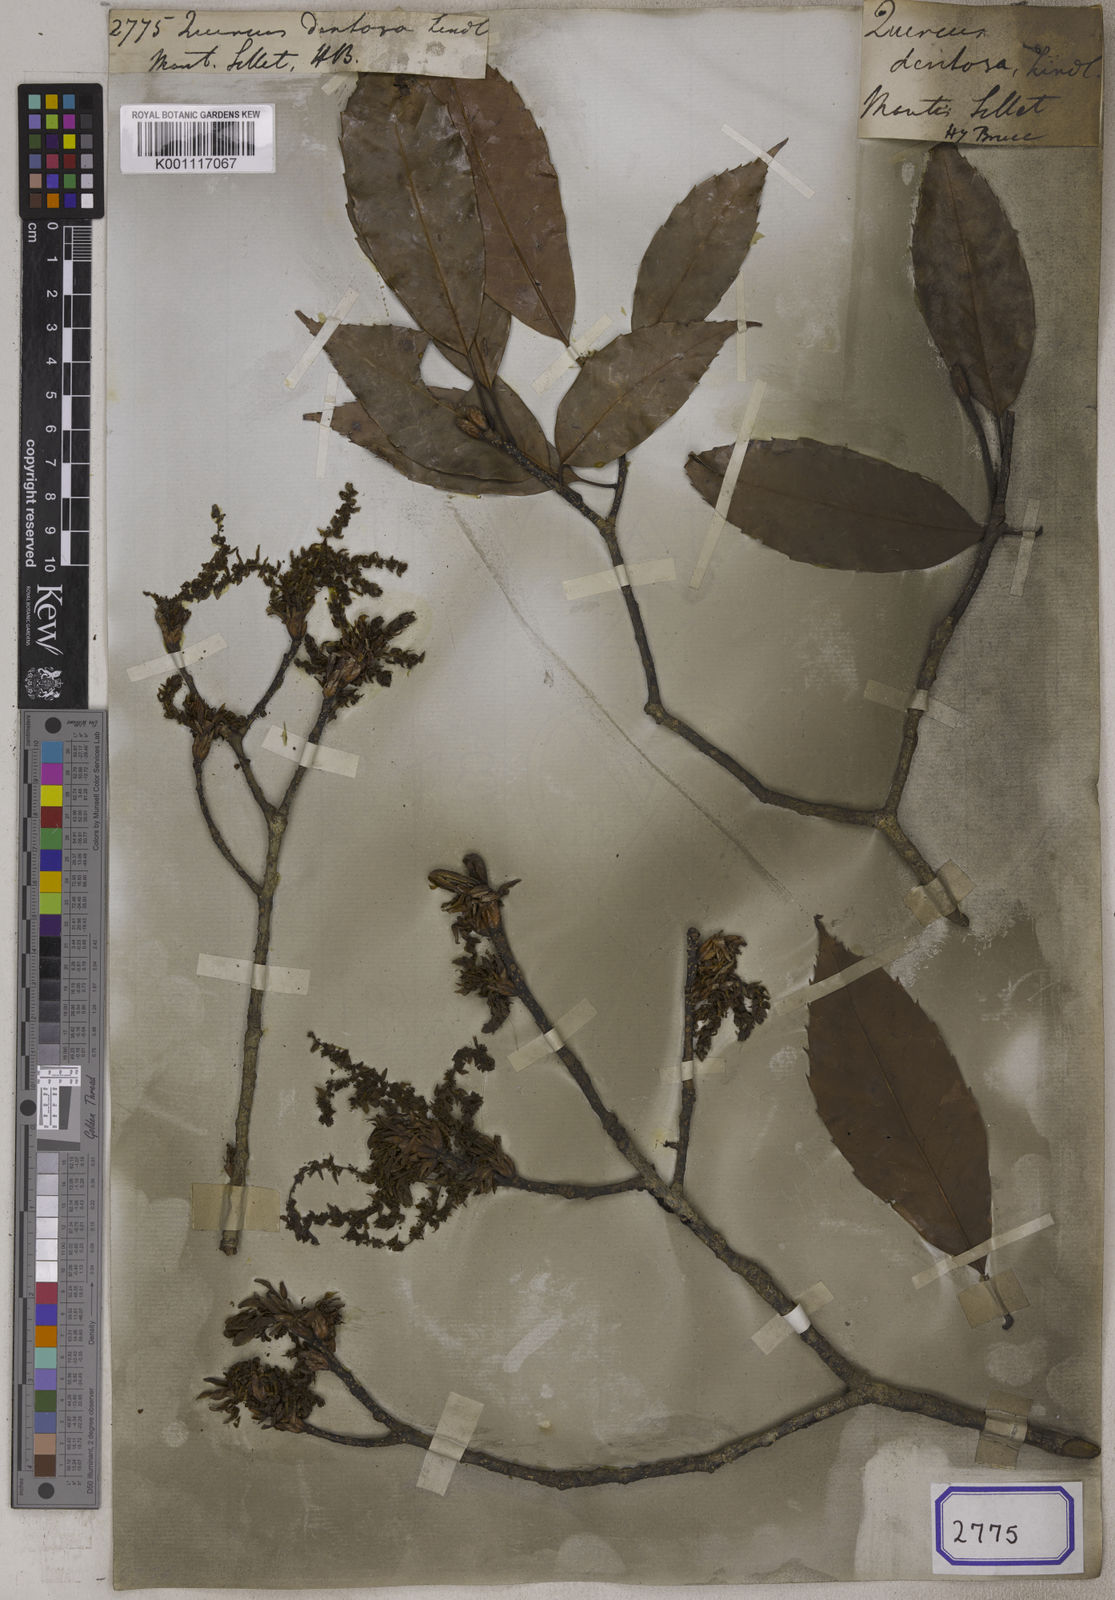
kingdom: Plantae
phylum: Tracheophyta
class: Magnoliopsida
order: Fagales
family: Fagaceae
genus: Quercus
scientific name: Quercus
